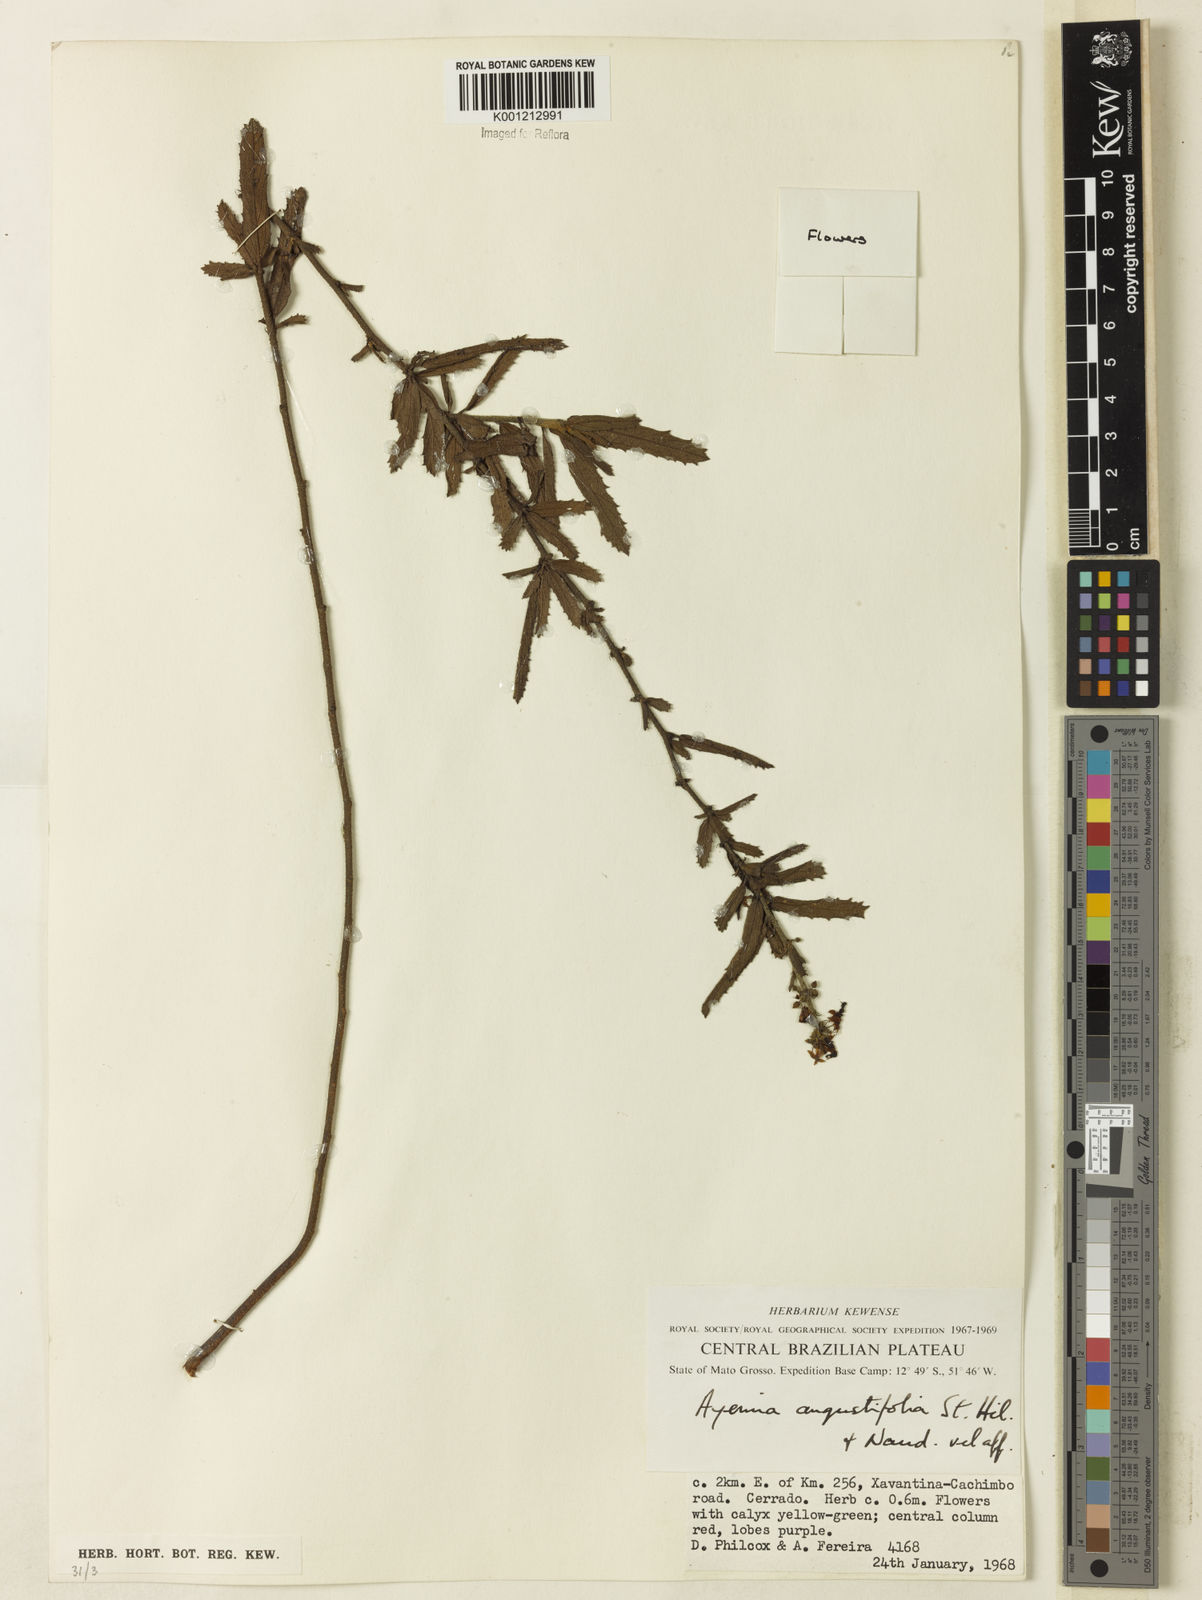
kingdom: Plantae
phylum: Tracheophyta
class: Magnoliopsida
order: Malvales
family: Malvaceae
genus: Ayenia
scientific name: Ayenia angustifolia
